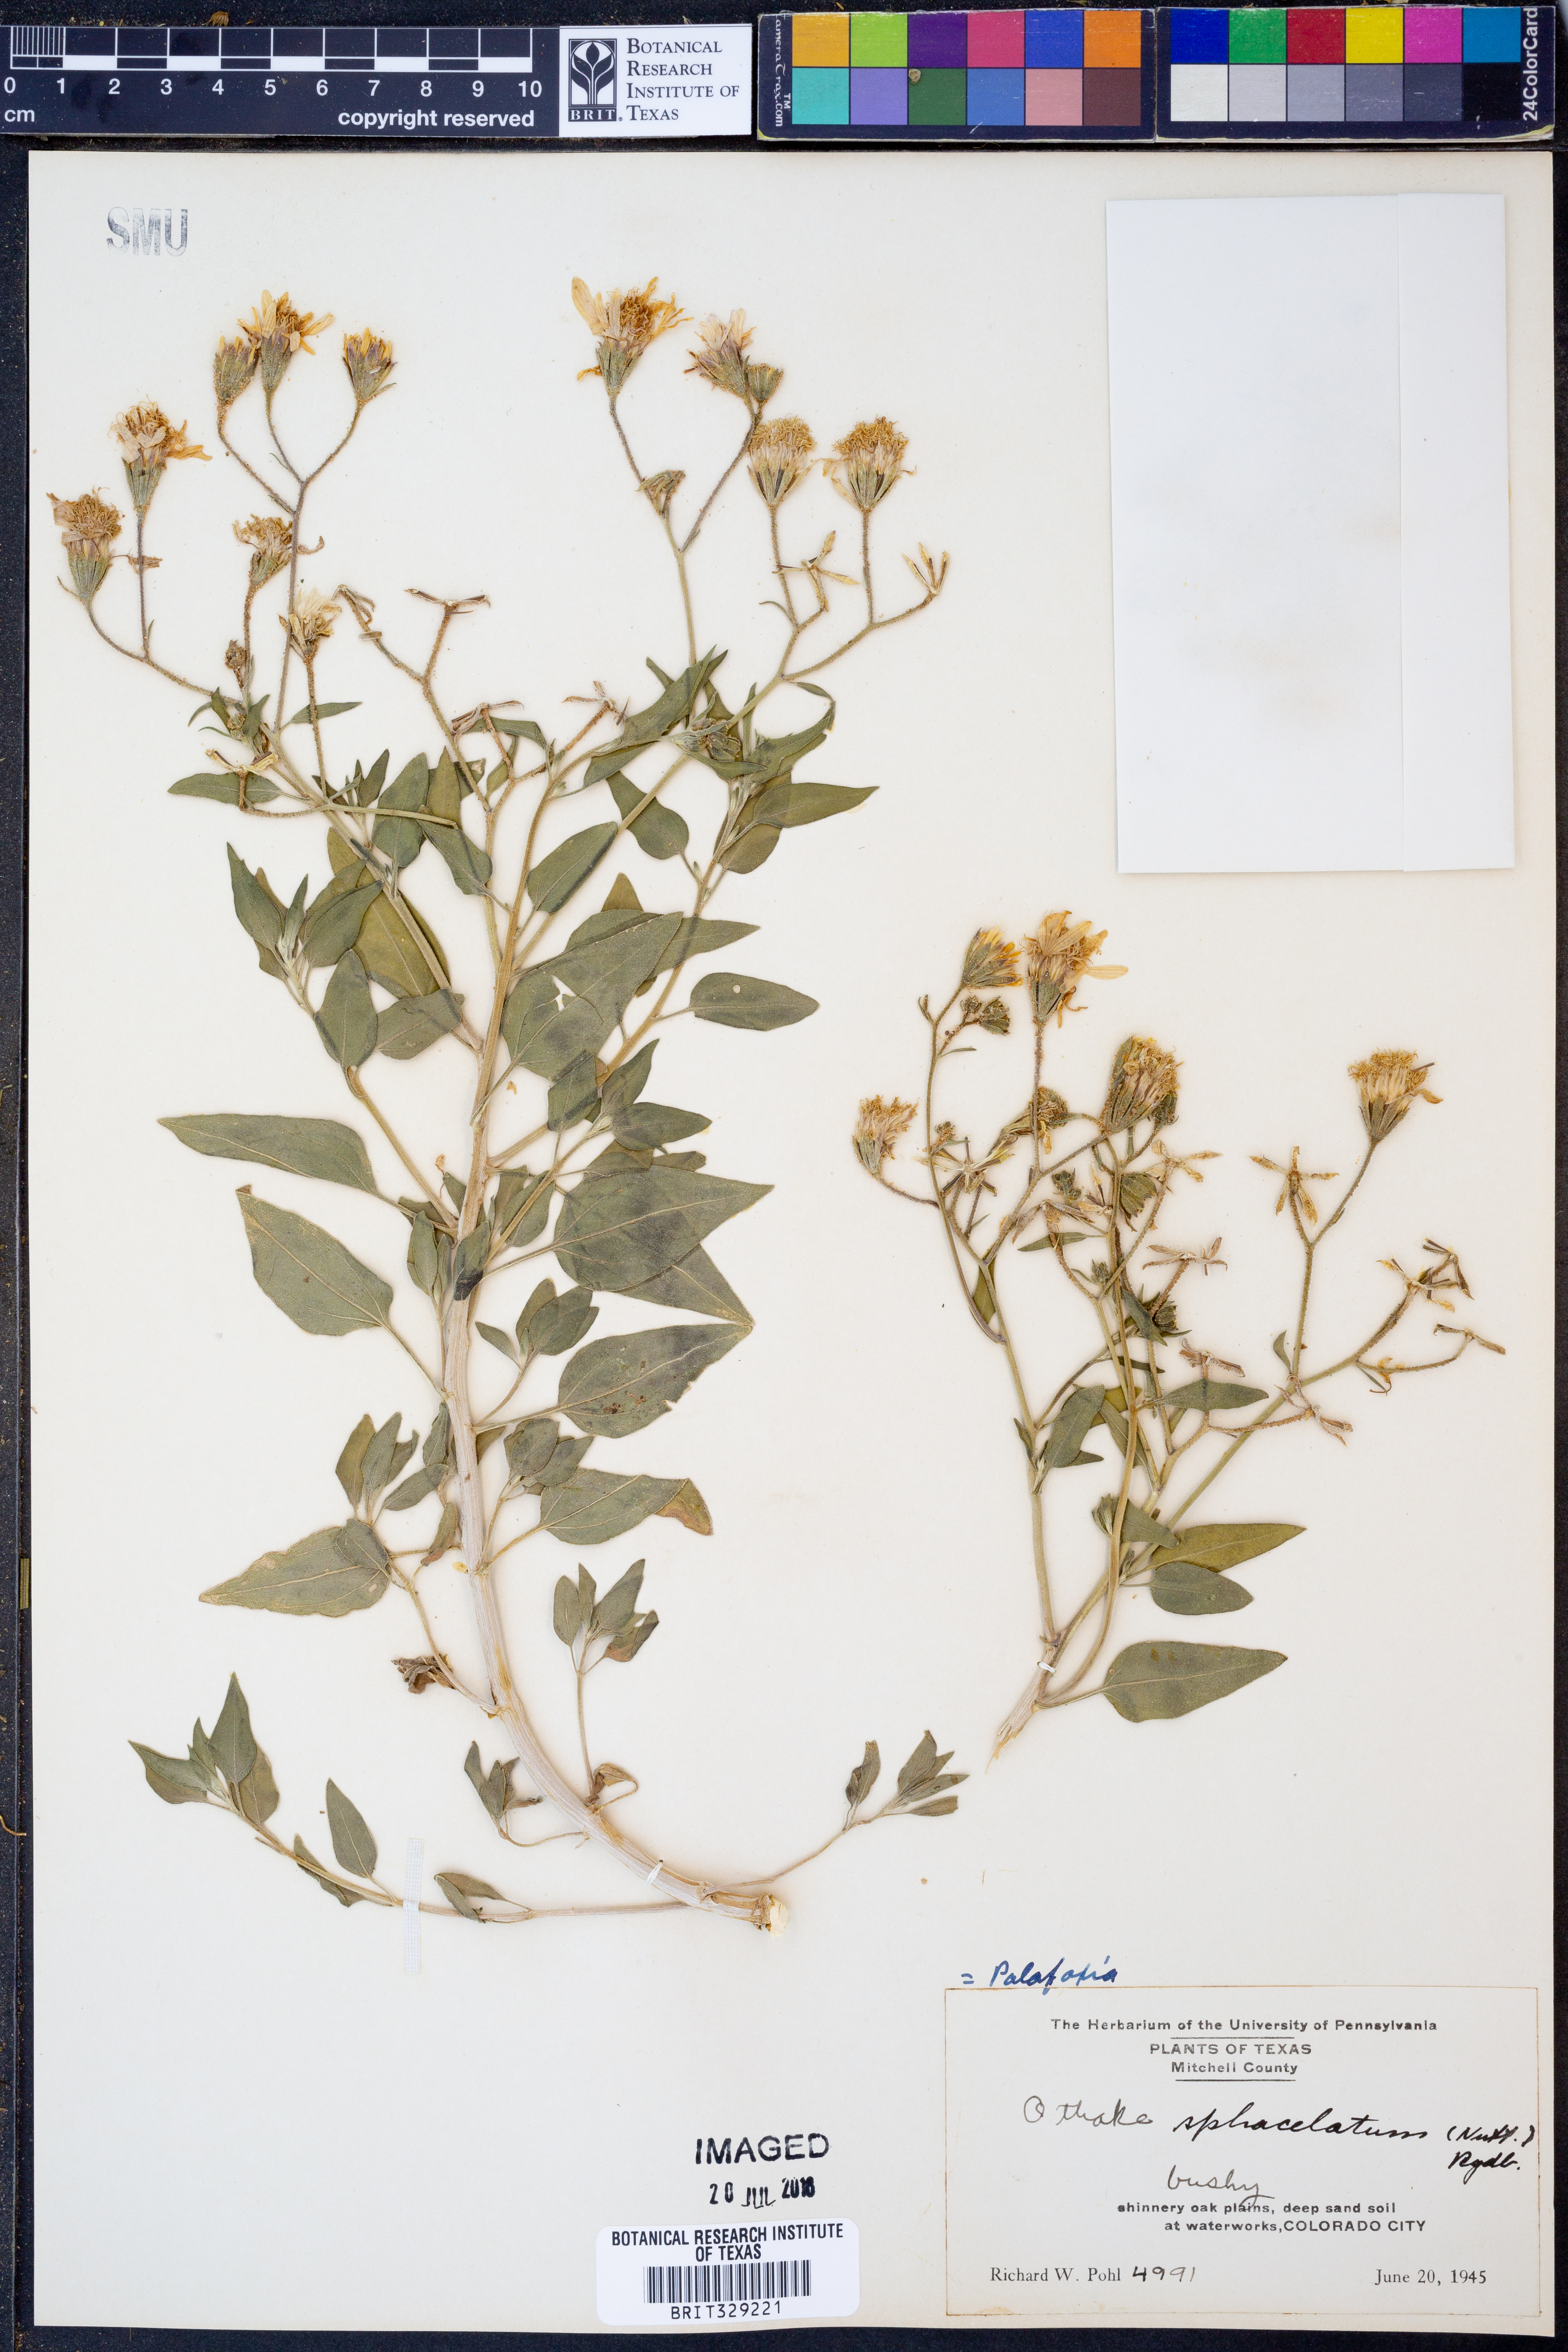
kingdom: Plantae
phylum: Tracheophyta
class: Magnoliopsida
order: Asterales
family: Asteraceae
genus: Palafoxia
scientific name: Palafoxia sphacelata
